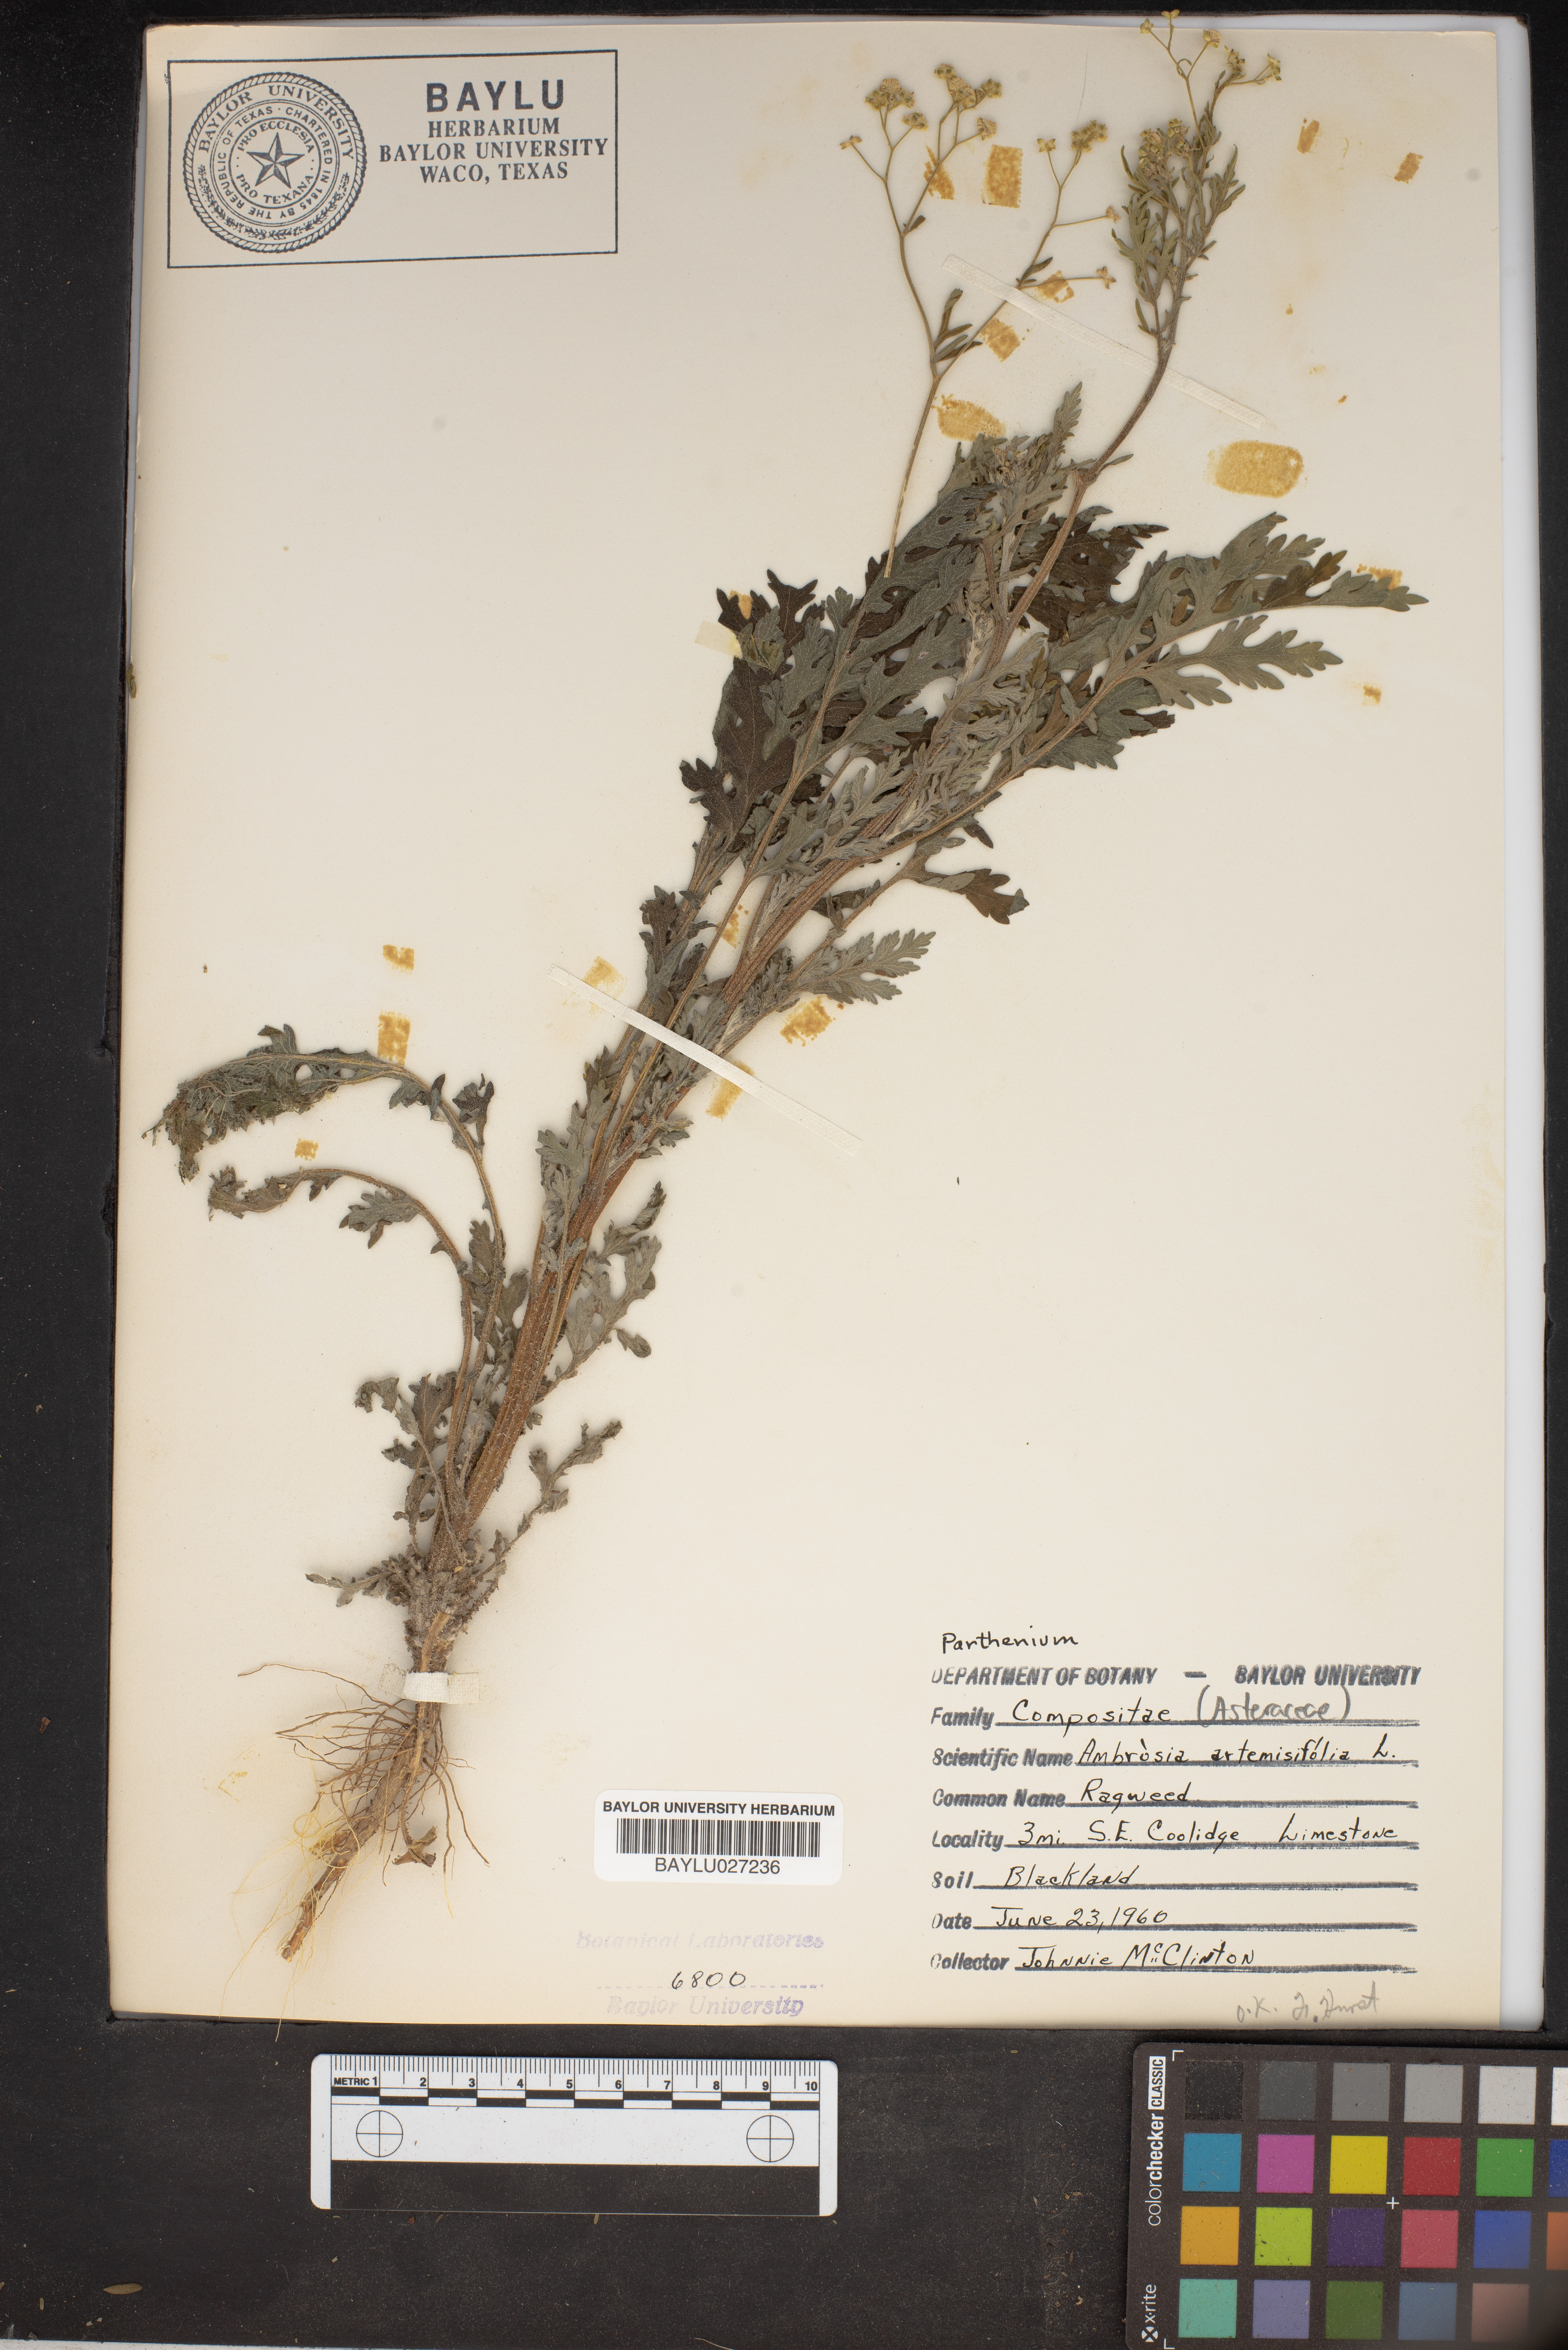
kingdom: Plantae
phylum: Tracheophyta
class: Magnoliopsida
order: Asterales
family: Asteraceae
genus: Ambrosia
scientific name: Ambrosia artemisiifolia
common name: Annual ragweed
